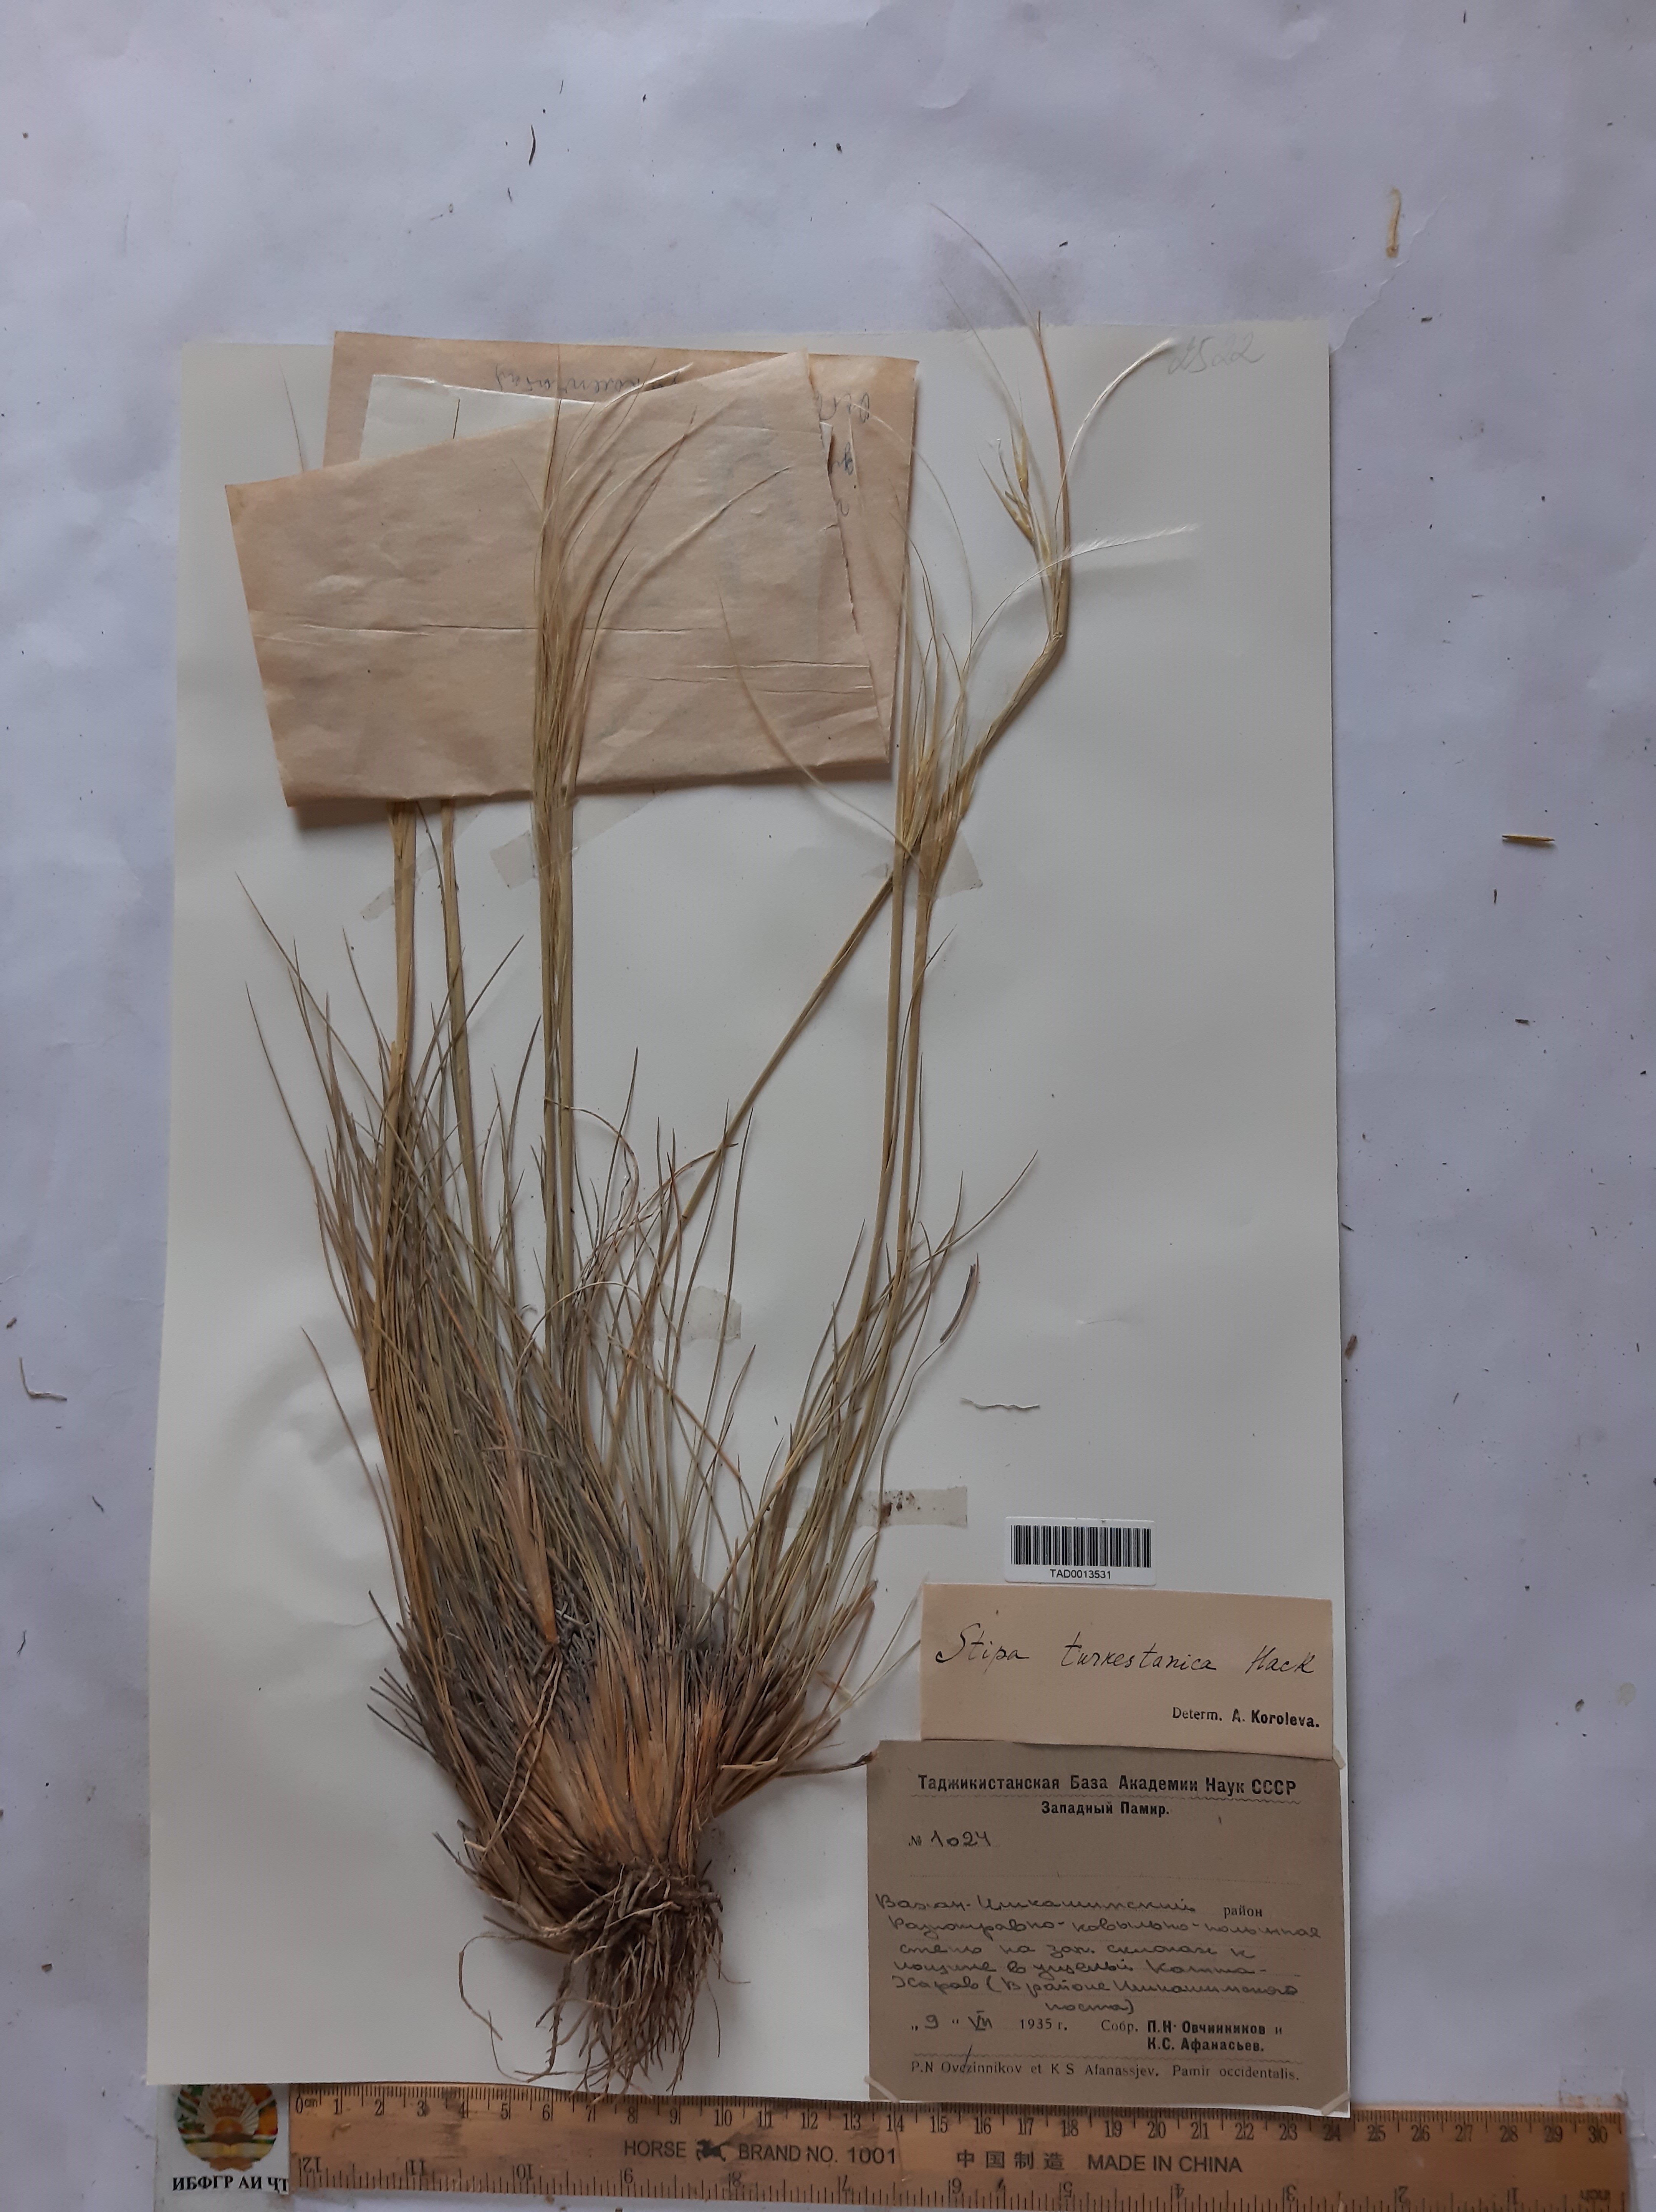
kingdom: Plantae
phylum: Tracheophyta
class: Liliopsida
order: Poales
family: Poaceae
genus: Stipa
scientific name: Stipa turkestanica
